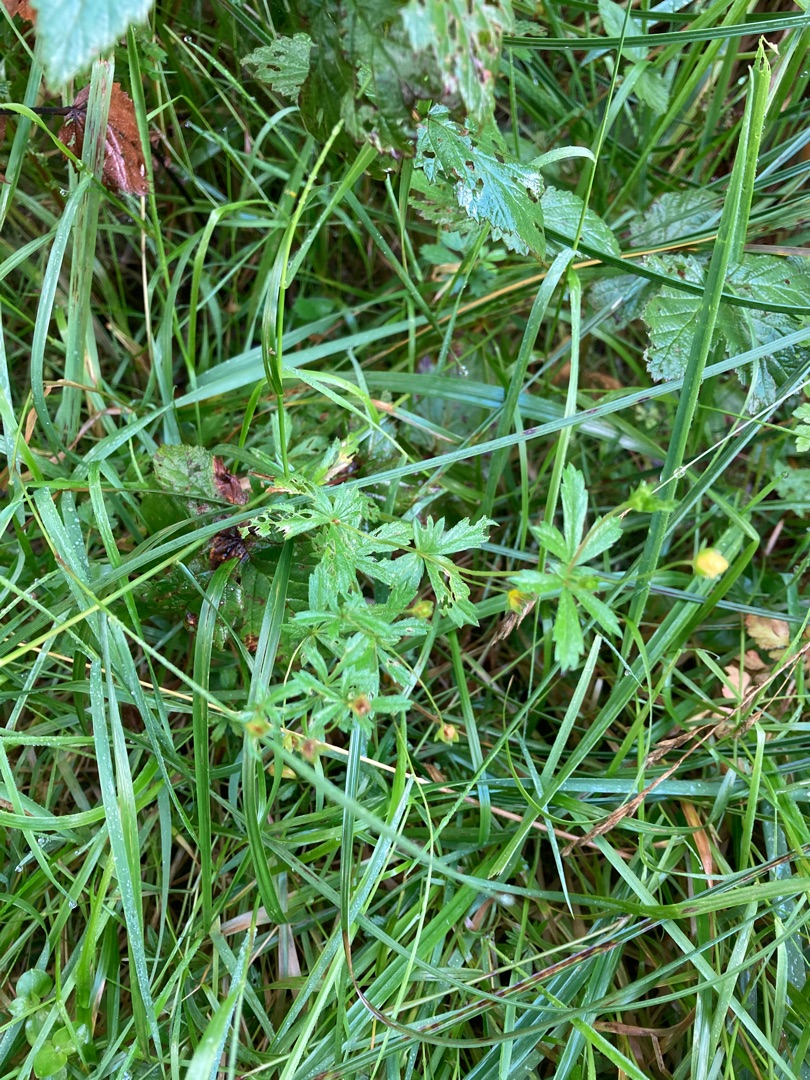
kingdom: Plantae
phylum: Tracheophyta
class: Magnoliopsida
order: Rosales
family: Rosaceae
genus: Potentilla
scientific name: Potentilla erecta
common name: Tormentil
